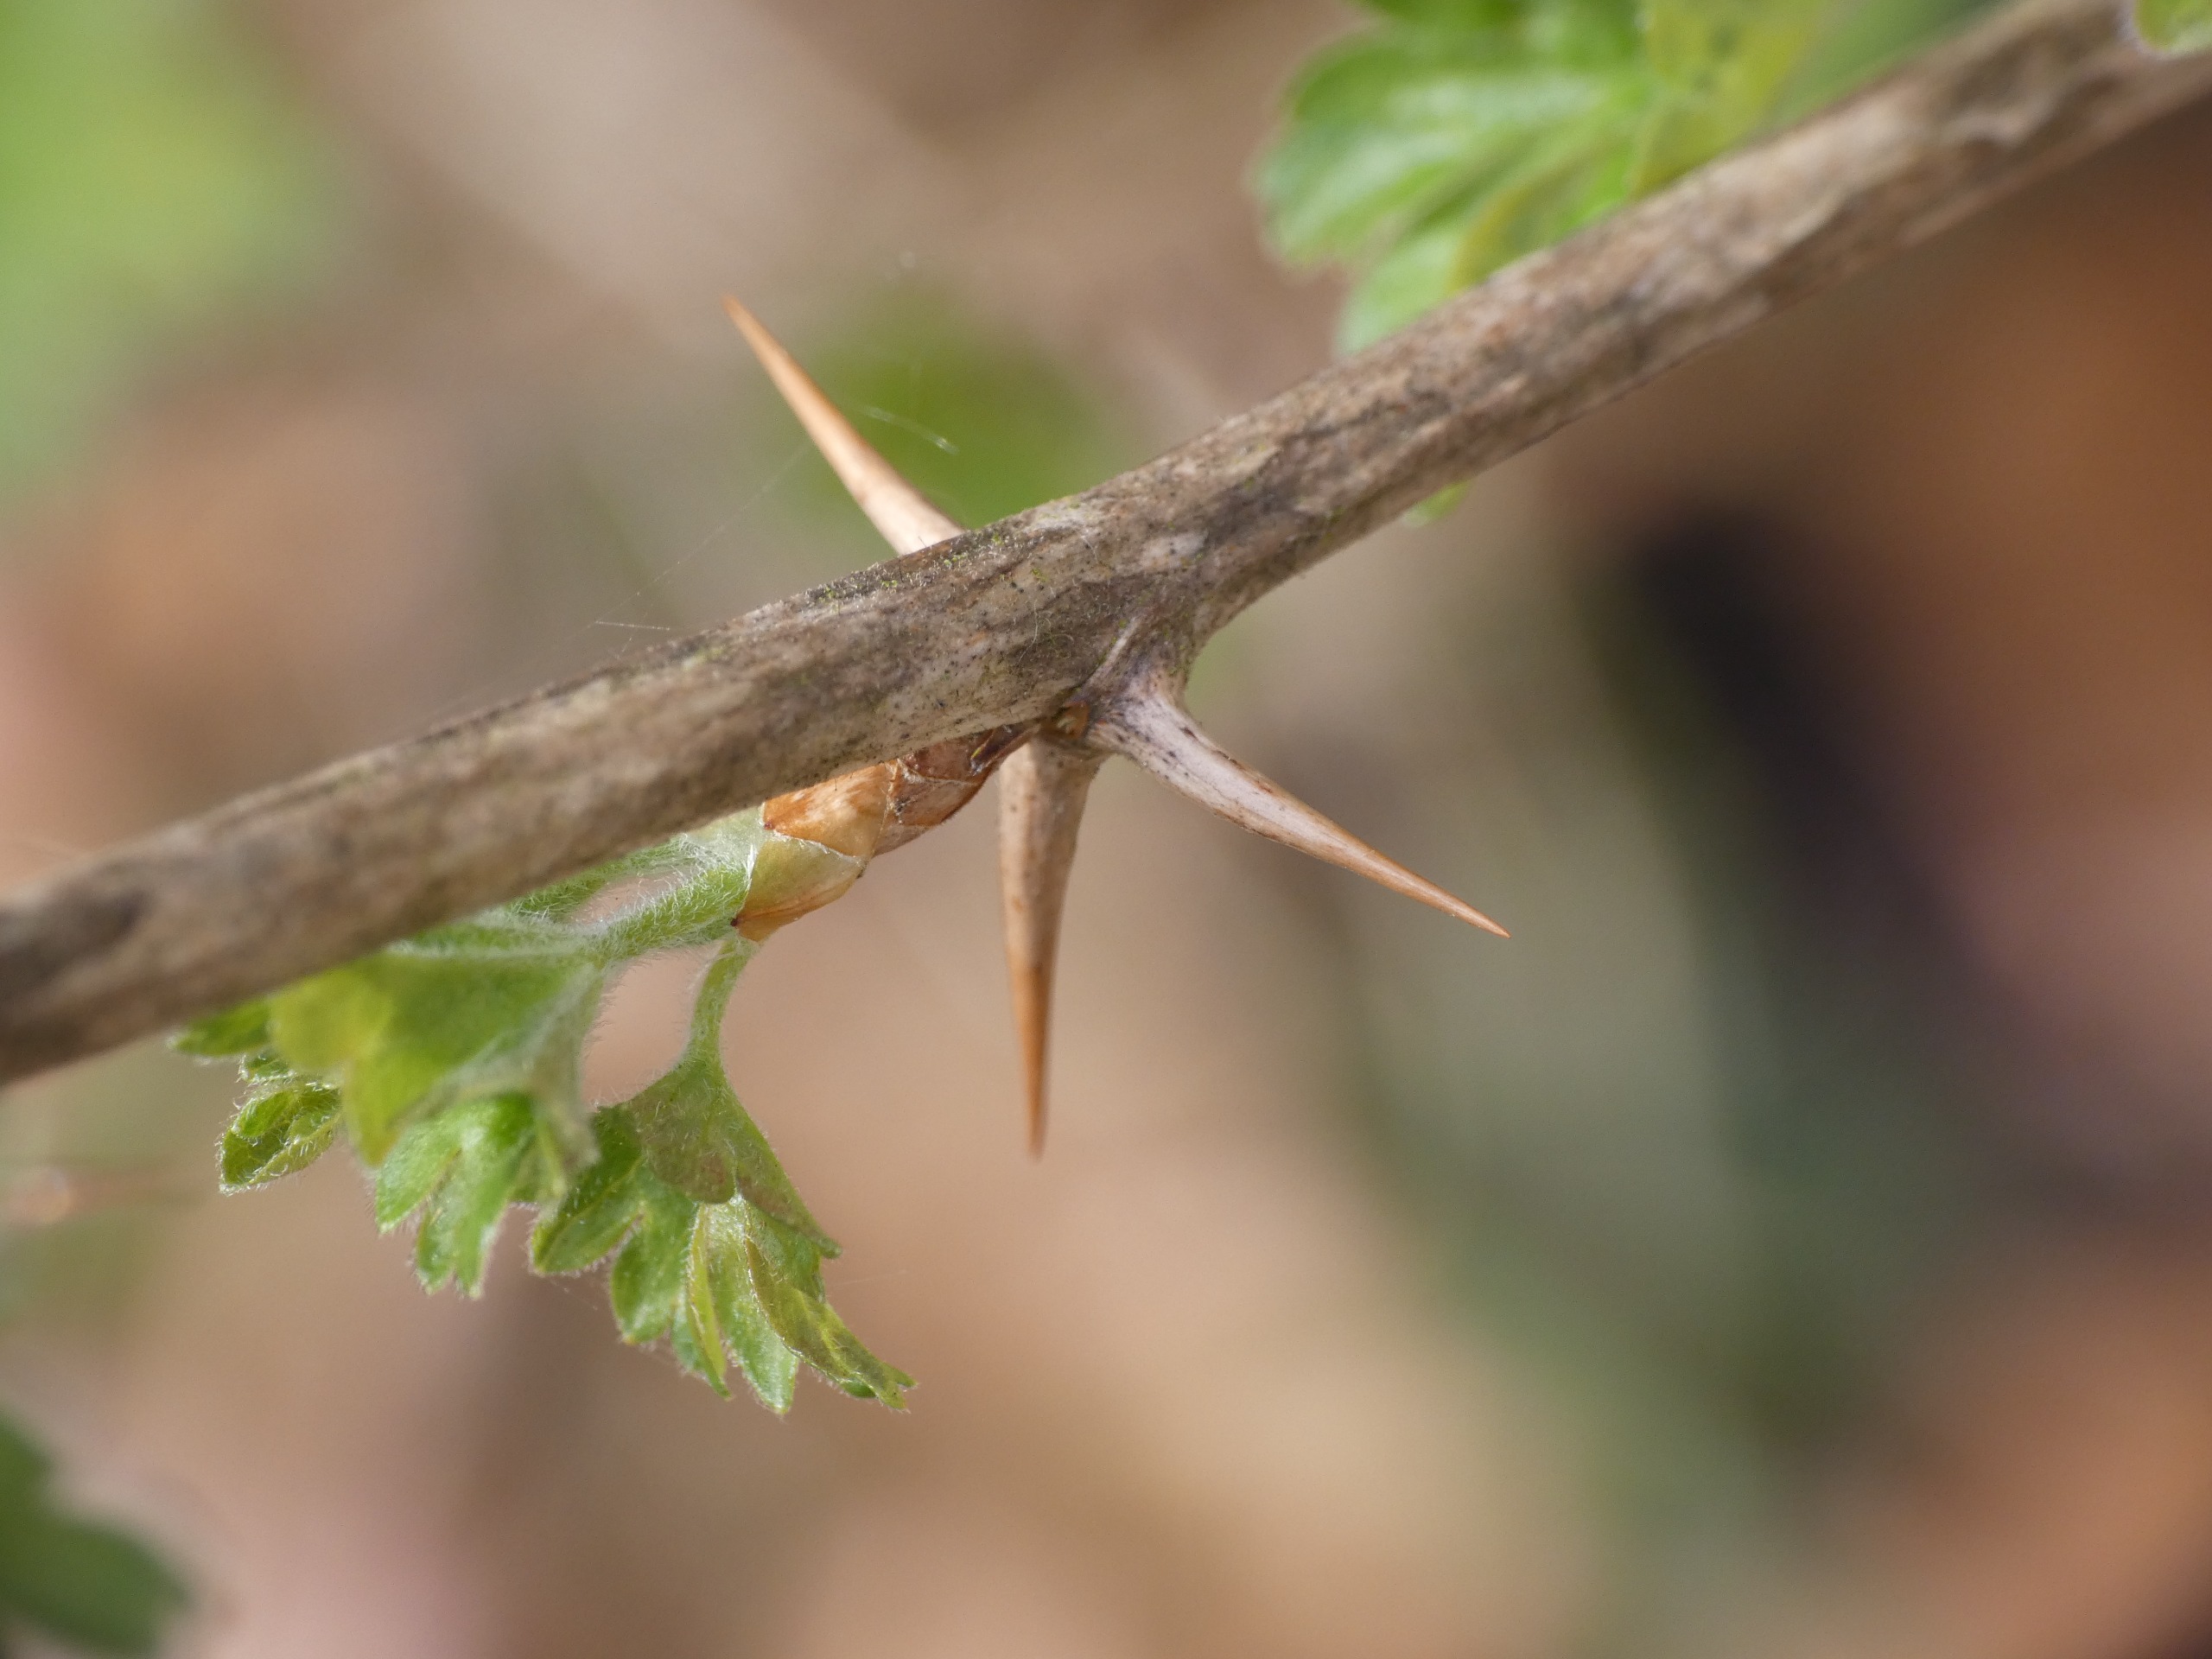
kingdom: Plantae
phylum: Tracheophyta
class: Magnoliopsida
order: Saxifragales
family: Grossulariaceae
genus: Ribes
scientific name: Ribes uva-crispa
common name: Stikkelsbær
